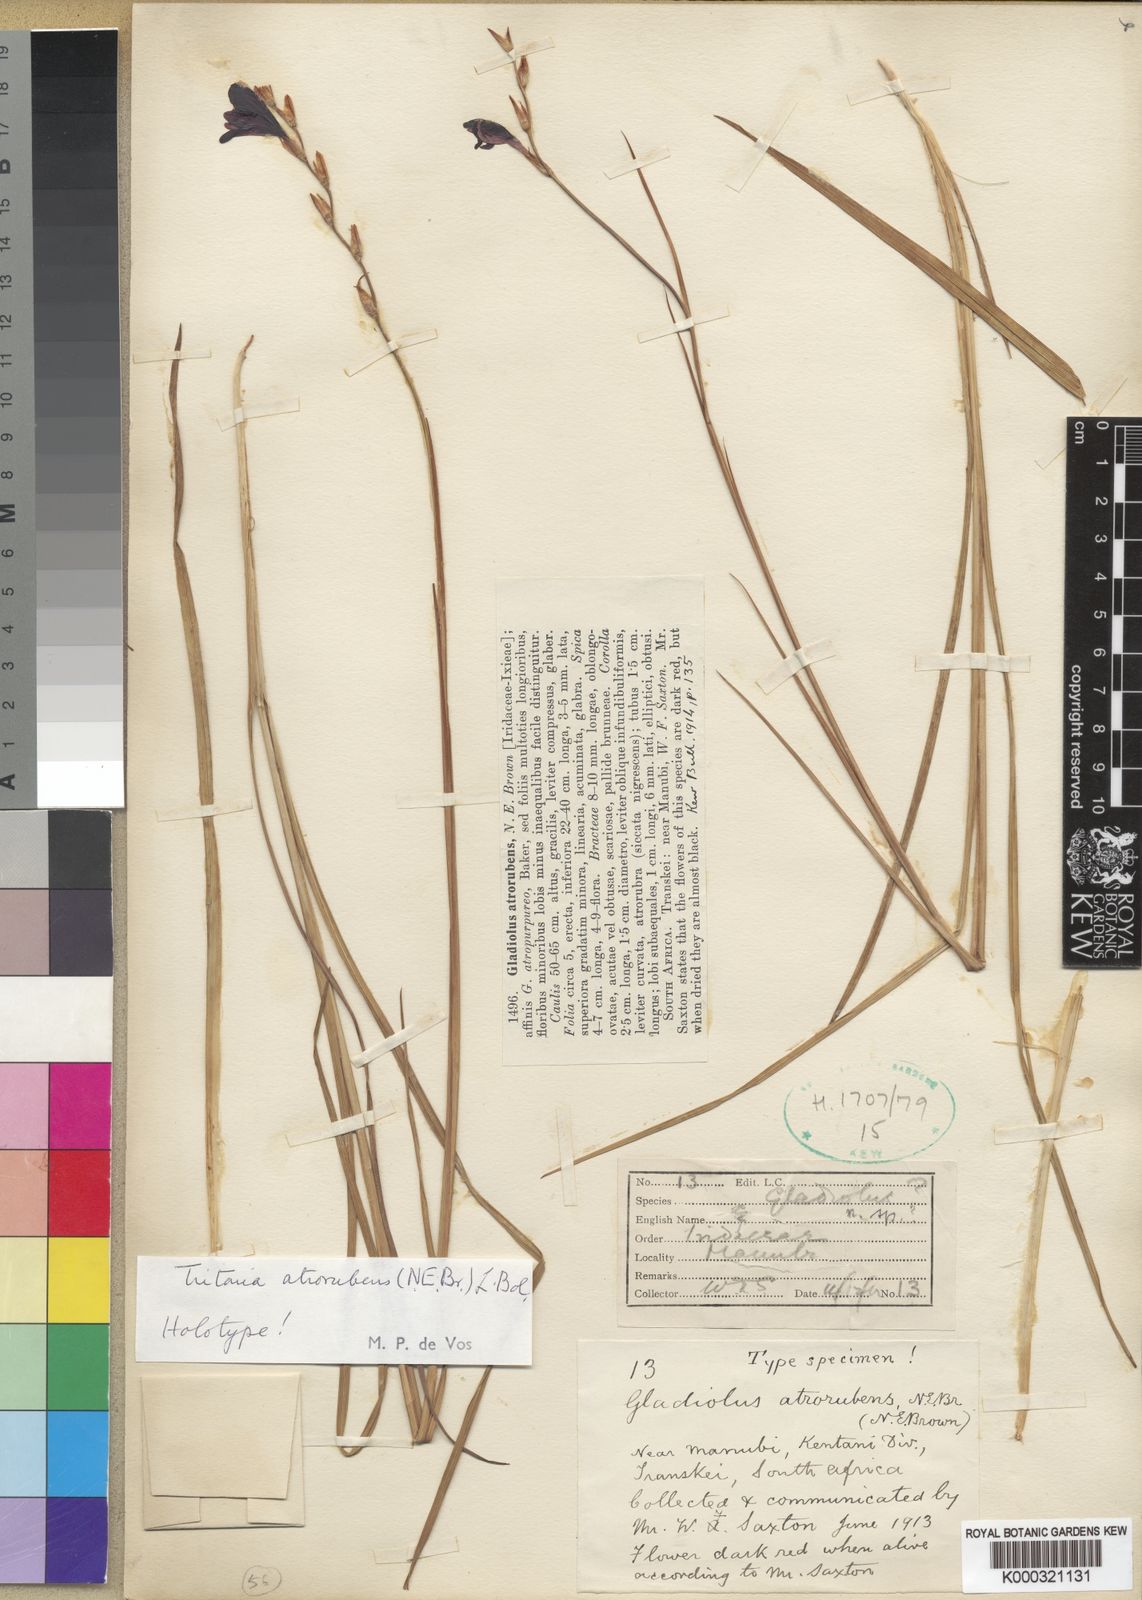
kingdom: Plantae
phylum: Tracheophyta
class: Liliopsida
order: Asparagales
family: Iridaceae
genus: Tritonia
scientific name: Tritonia atrorubens
